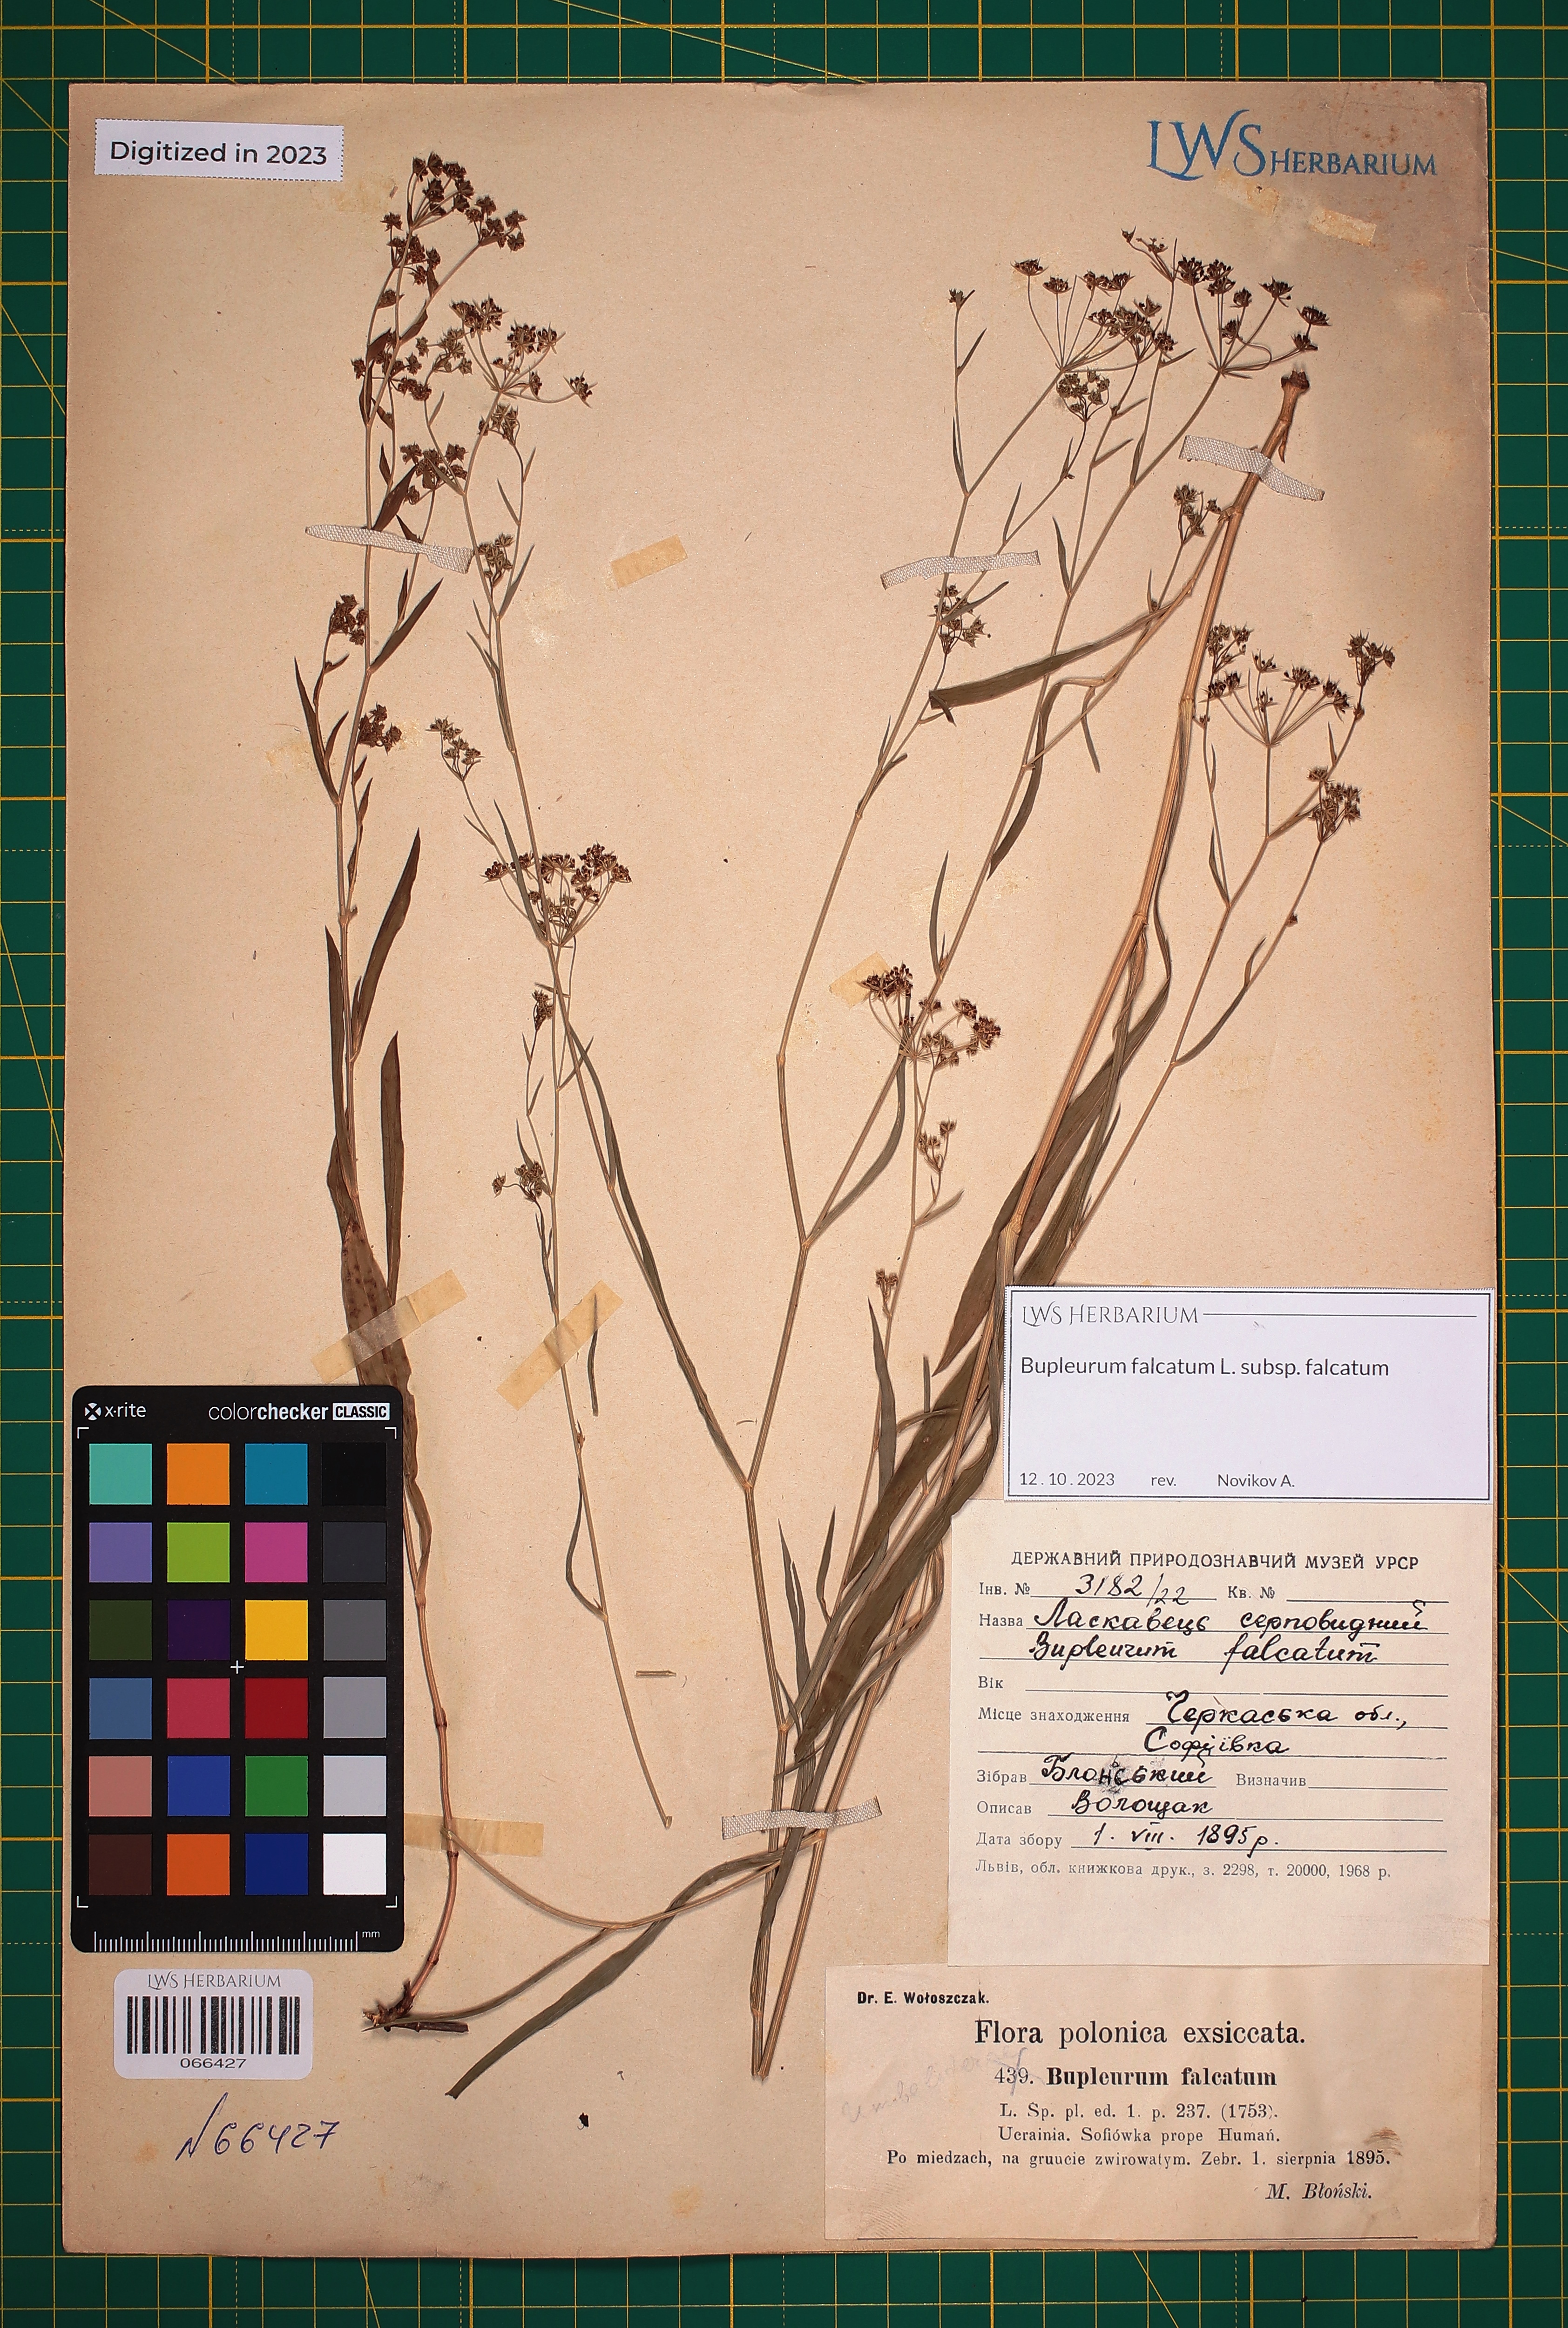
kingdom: Plantae
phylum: Tracheophyta
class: Magnoliopsida
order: Apiales
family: Apiaceae
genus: Bupleurum
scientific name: Bupleurum falcatum
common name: Sickle-leaved hare's-ear
